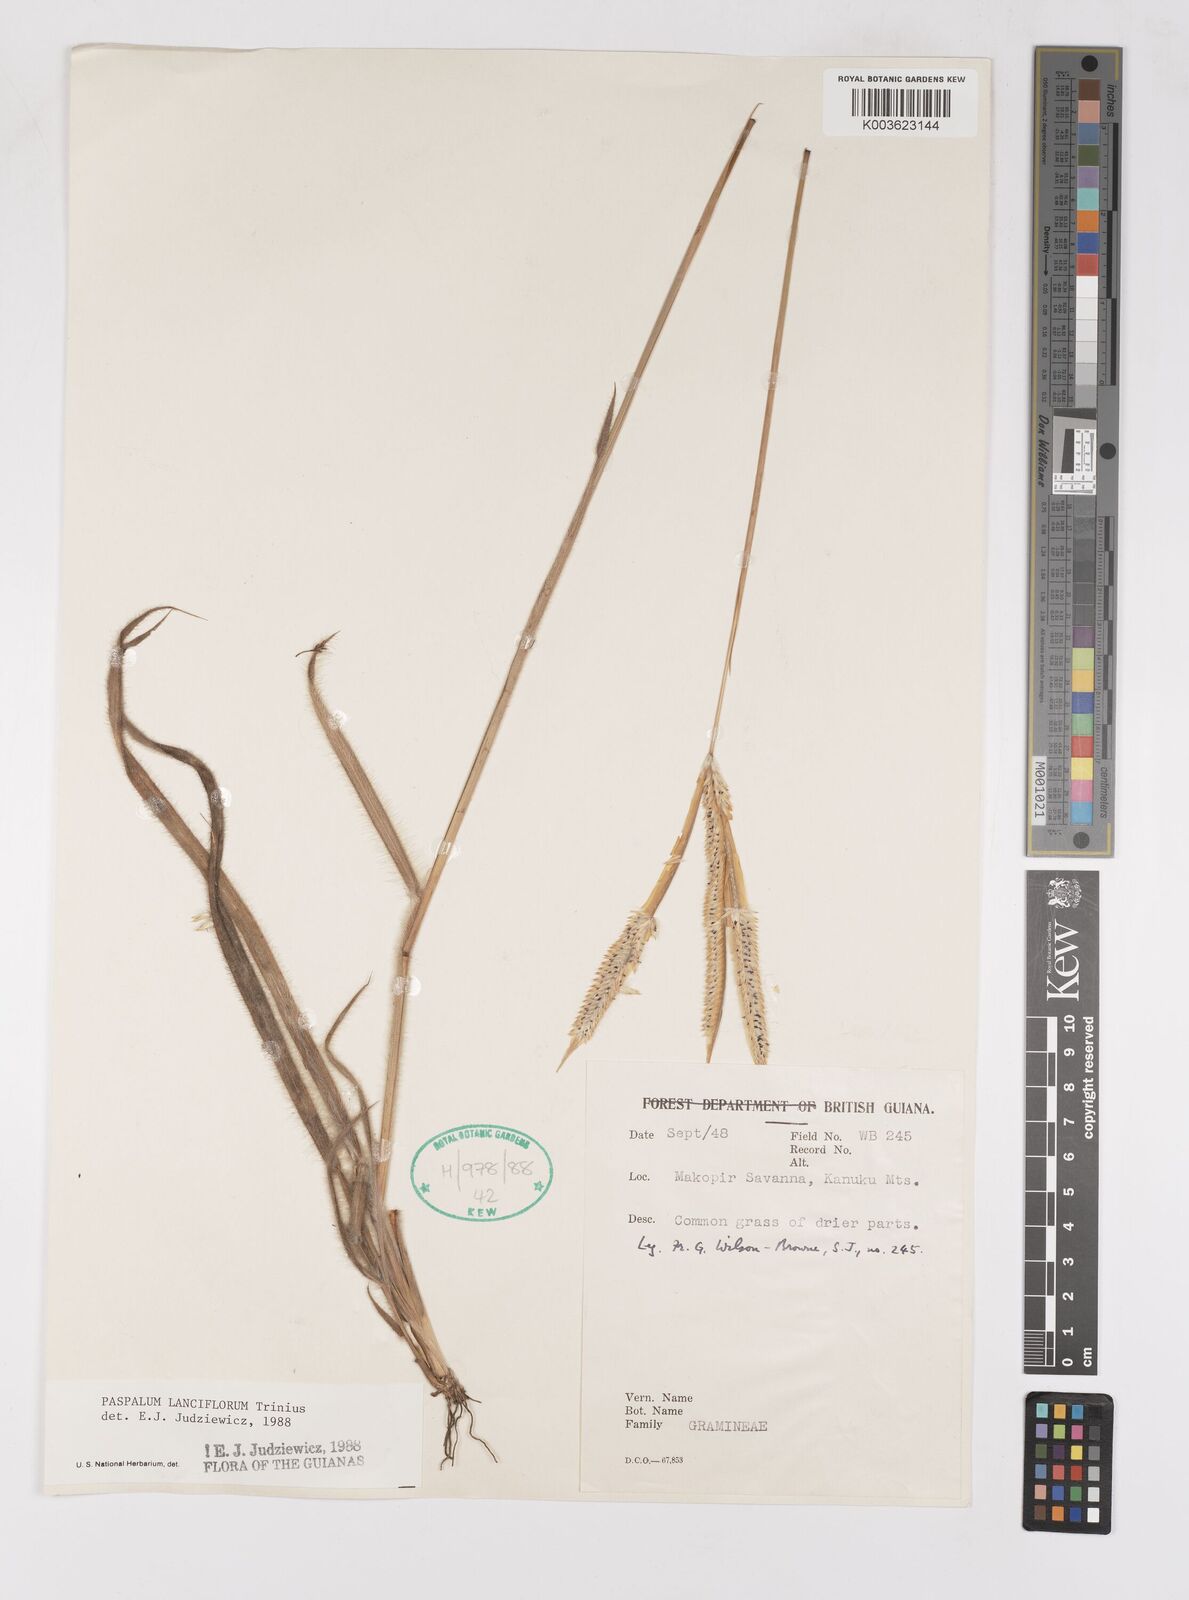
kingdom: Plantae
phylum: Tracheophyta
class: Liliopsida
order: Poales
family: Poaceae
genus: Paspalum
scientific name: Paspalum lanciflorum
